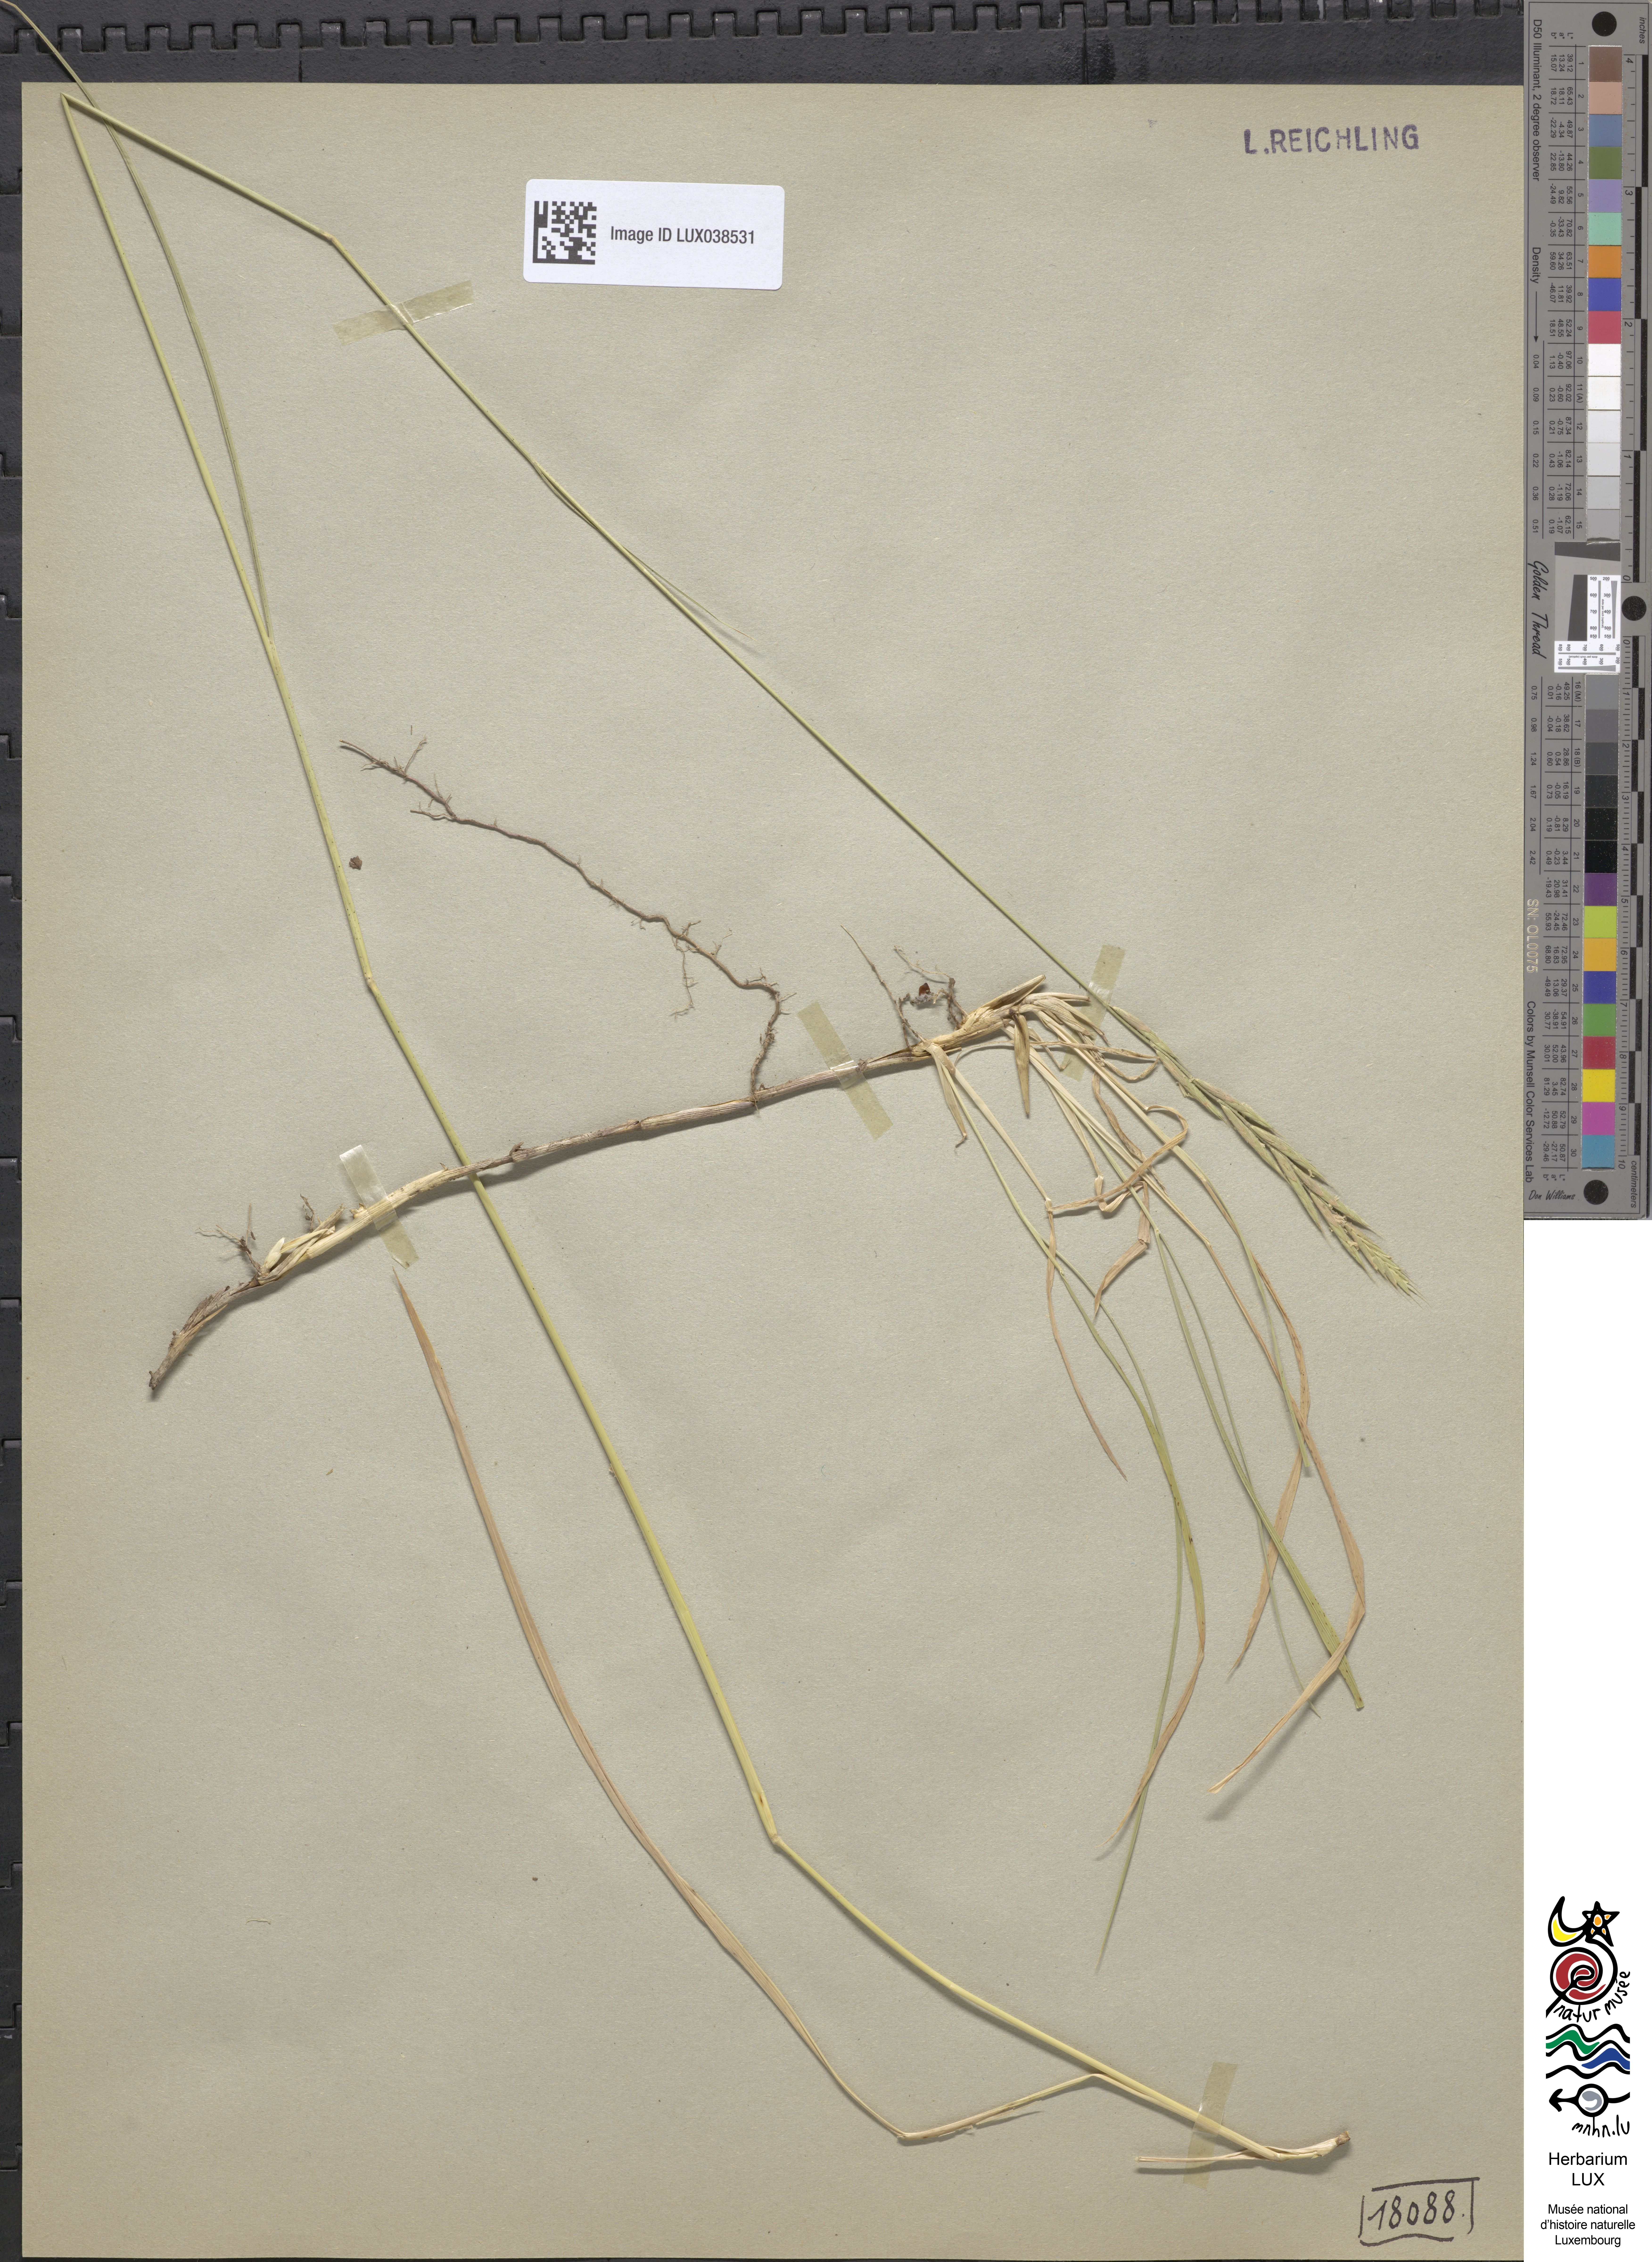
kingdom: Plantae
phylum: Tracheophyta
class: Liliopsida
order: Poales
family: Poaceae
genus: Brachypodium
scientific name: Brachypodium pinnatum
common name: Tor grass
